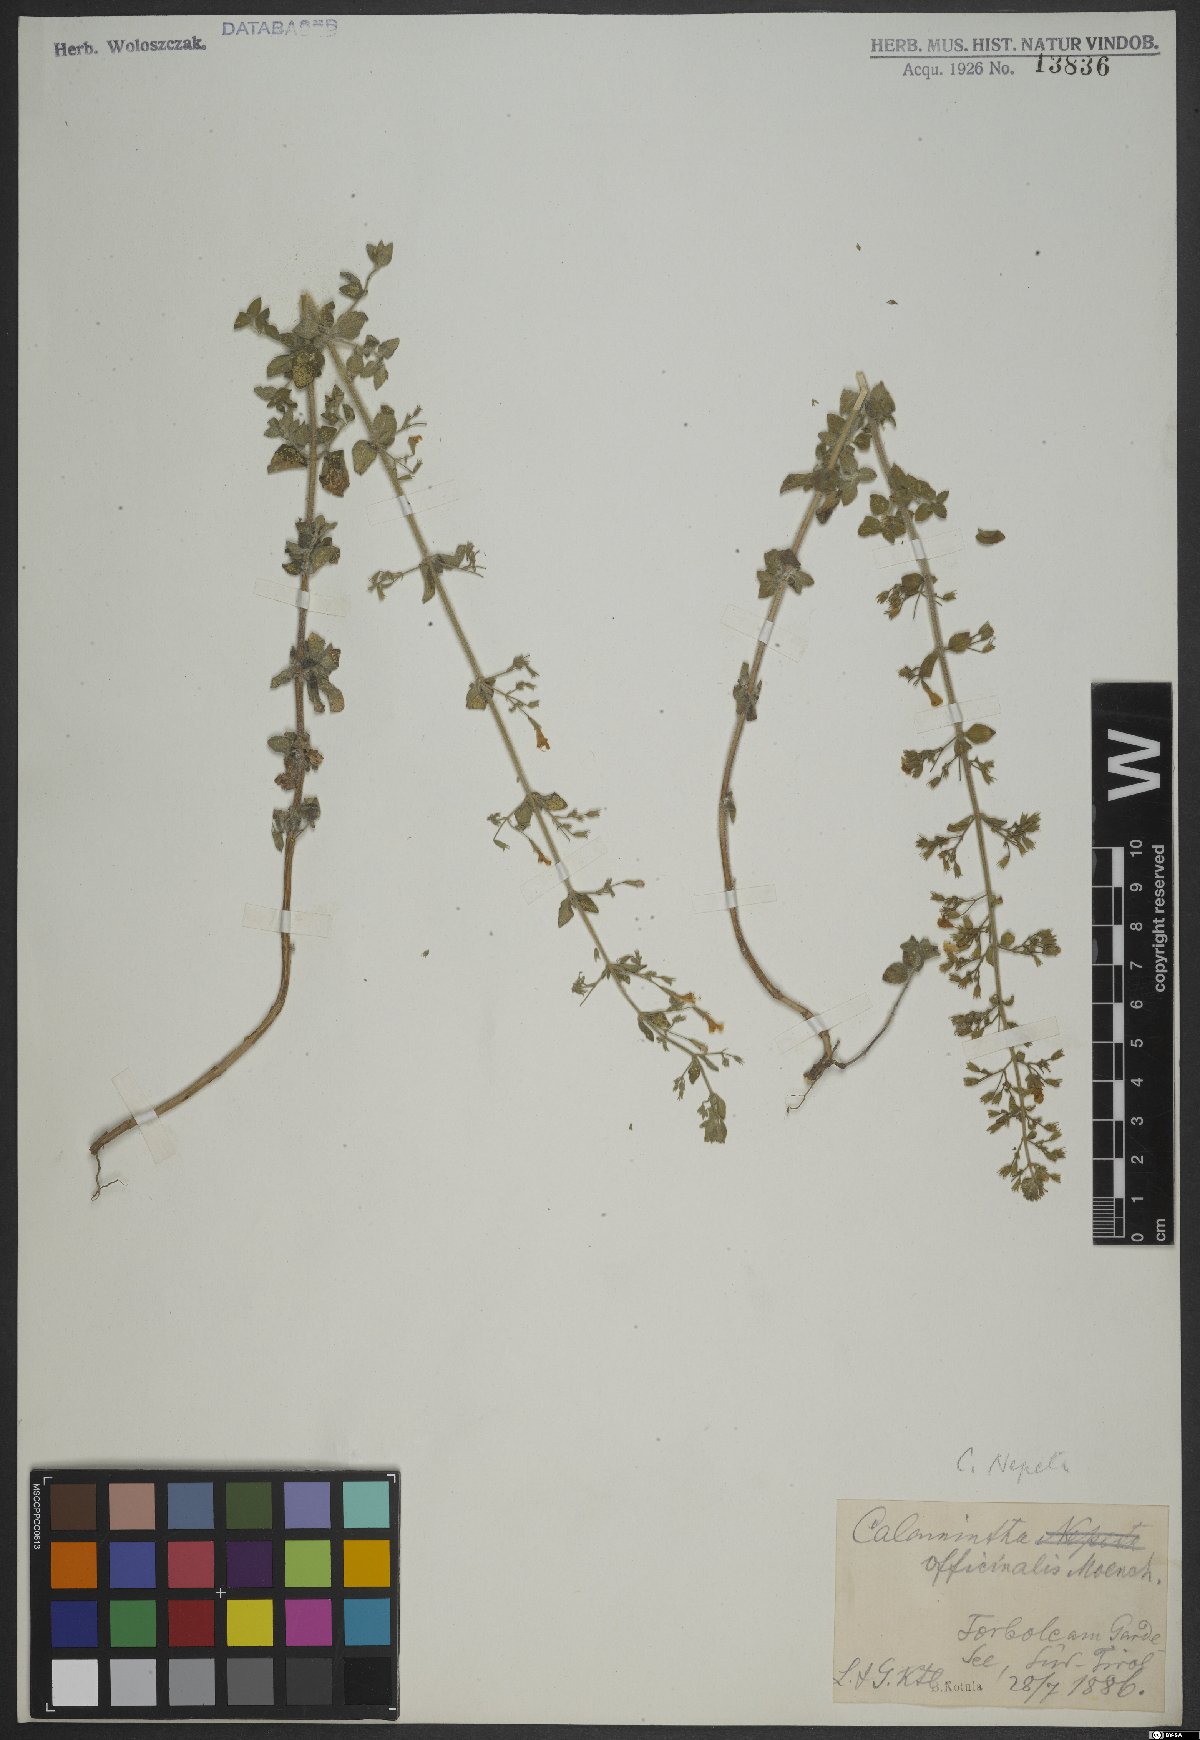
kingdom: Plantae
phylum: Tracheophyta
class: Magnoliopsida
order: Lamiales
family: Lamiaceae
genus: Clinopodium
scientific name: Clinopodium nepeta
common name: Lesser calamint
